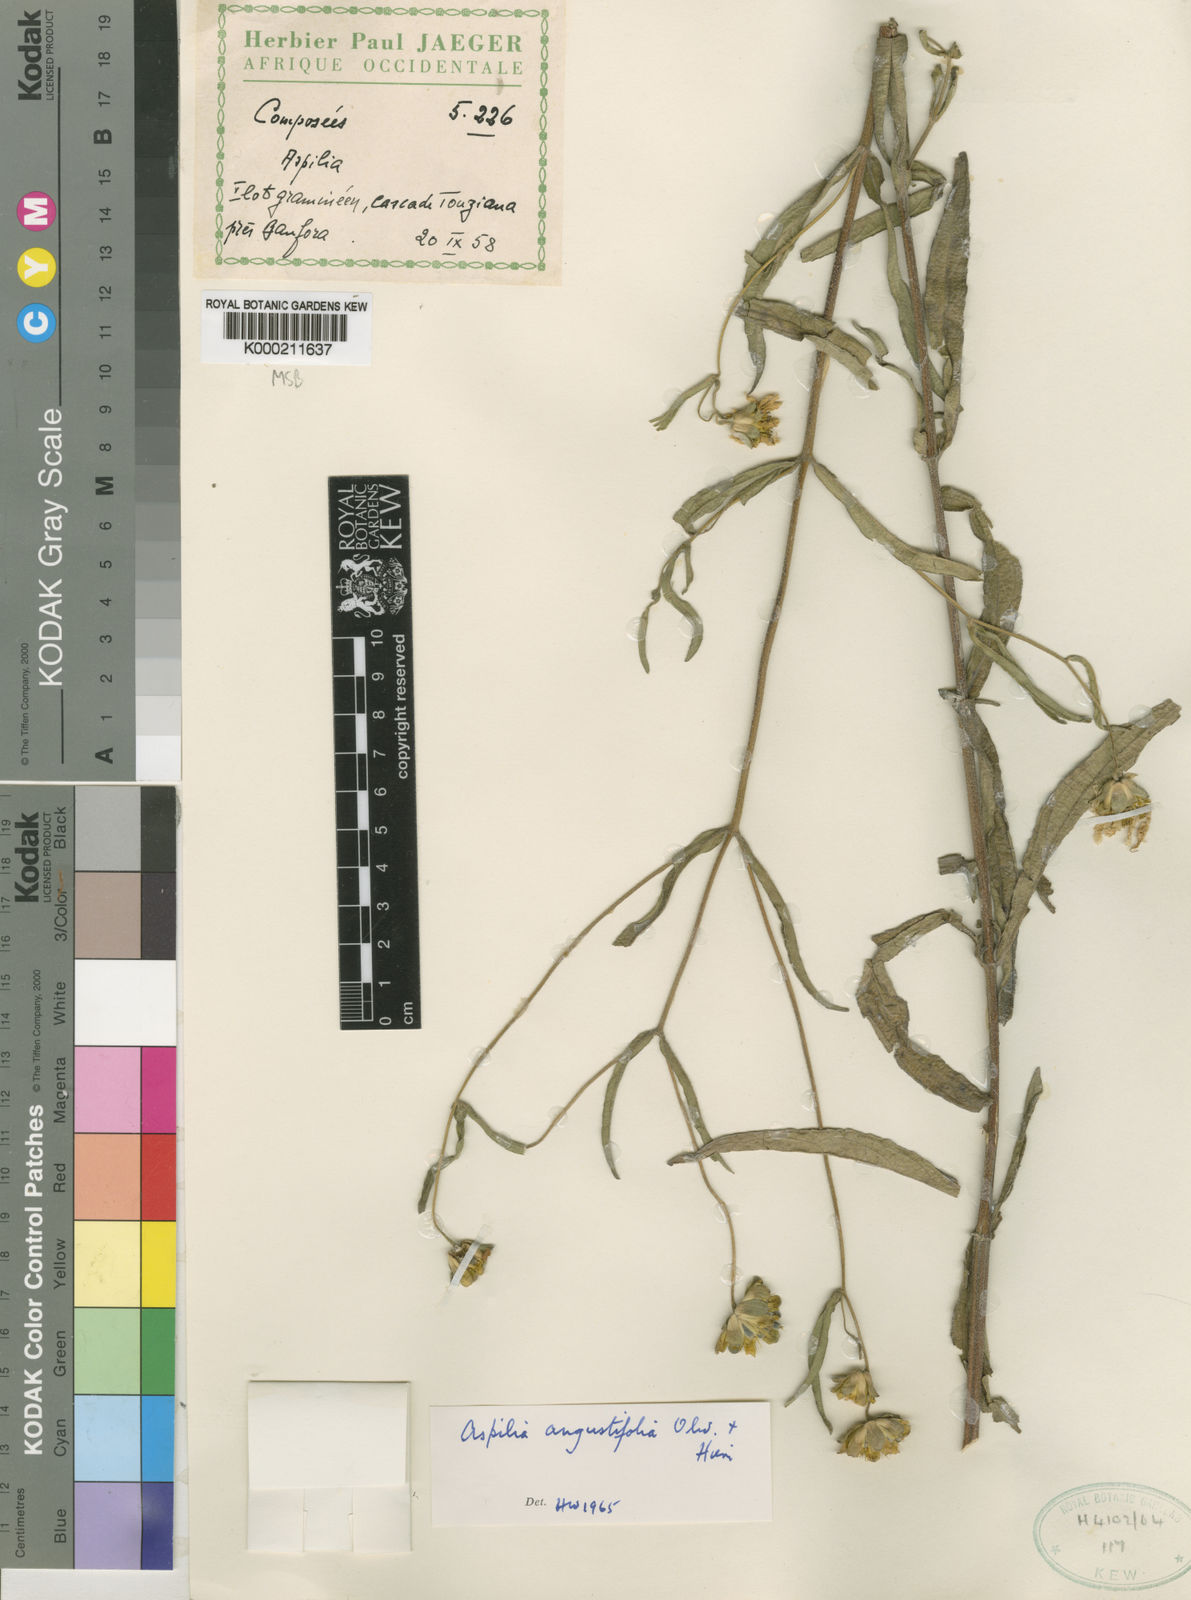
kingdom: Plantae
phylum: Tracheophyta
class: Magnoliopsida
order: Asterales
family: Asteraceae
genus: Aspilia
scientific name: Aspilia angustifolia
